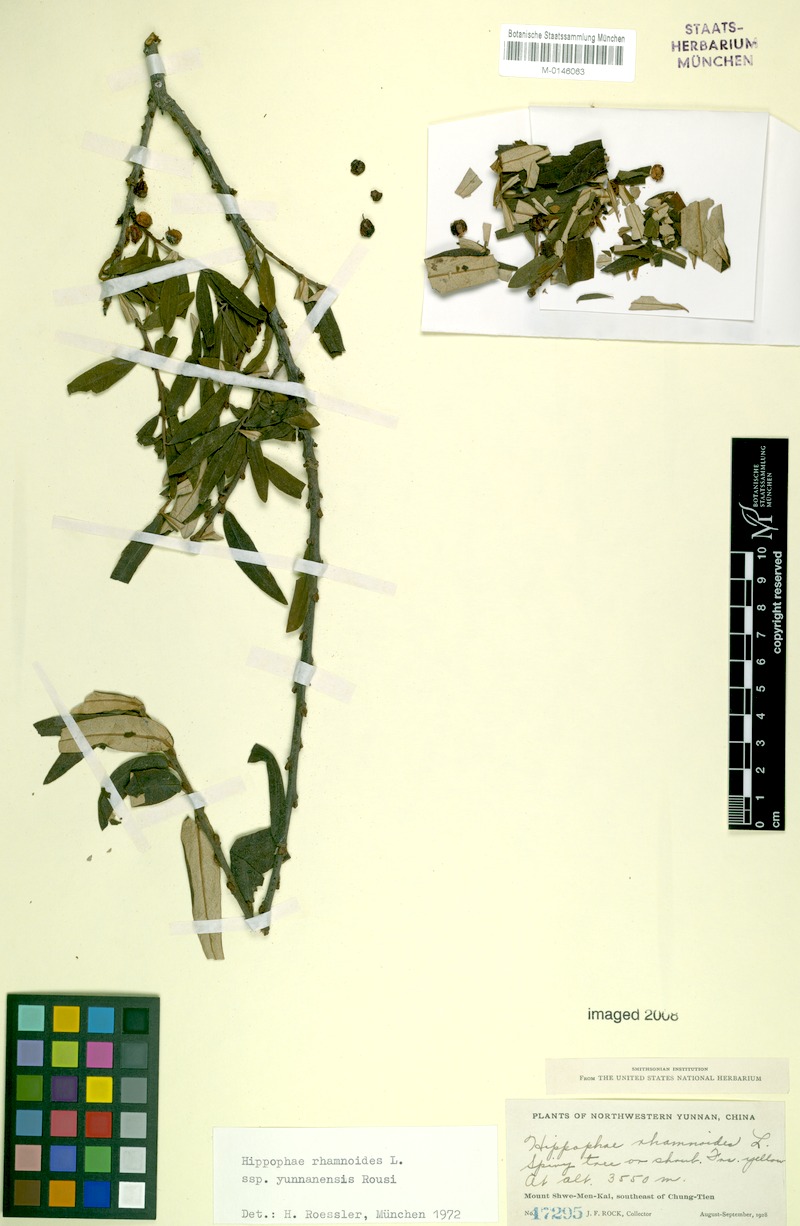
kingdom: Plantae
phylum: Tracheophyta
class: Magnoliopsida
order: Rosales
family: Elaeagnaceae
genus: Hippophae
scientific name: Hippophae rhamnoides
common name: Sea-buckthorn
